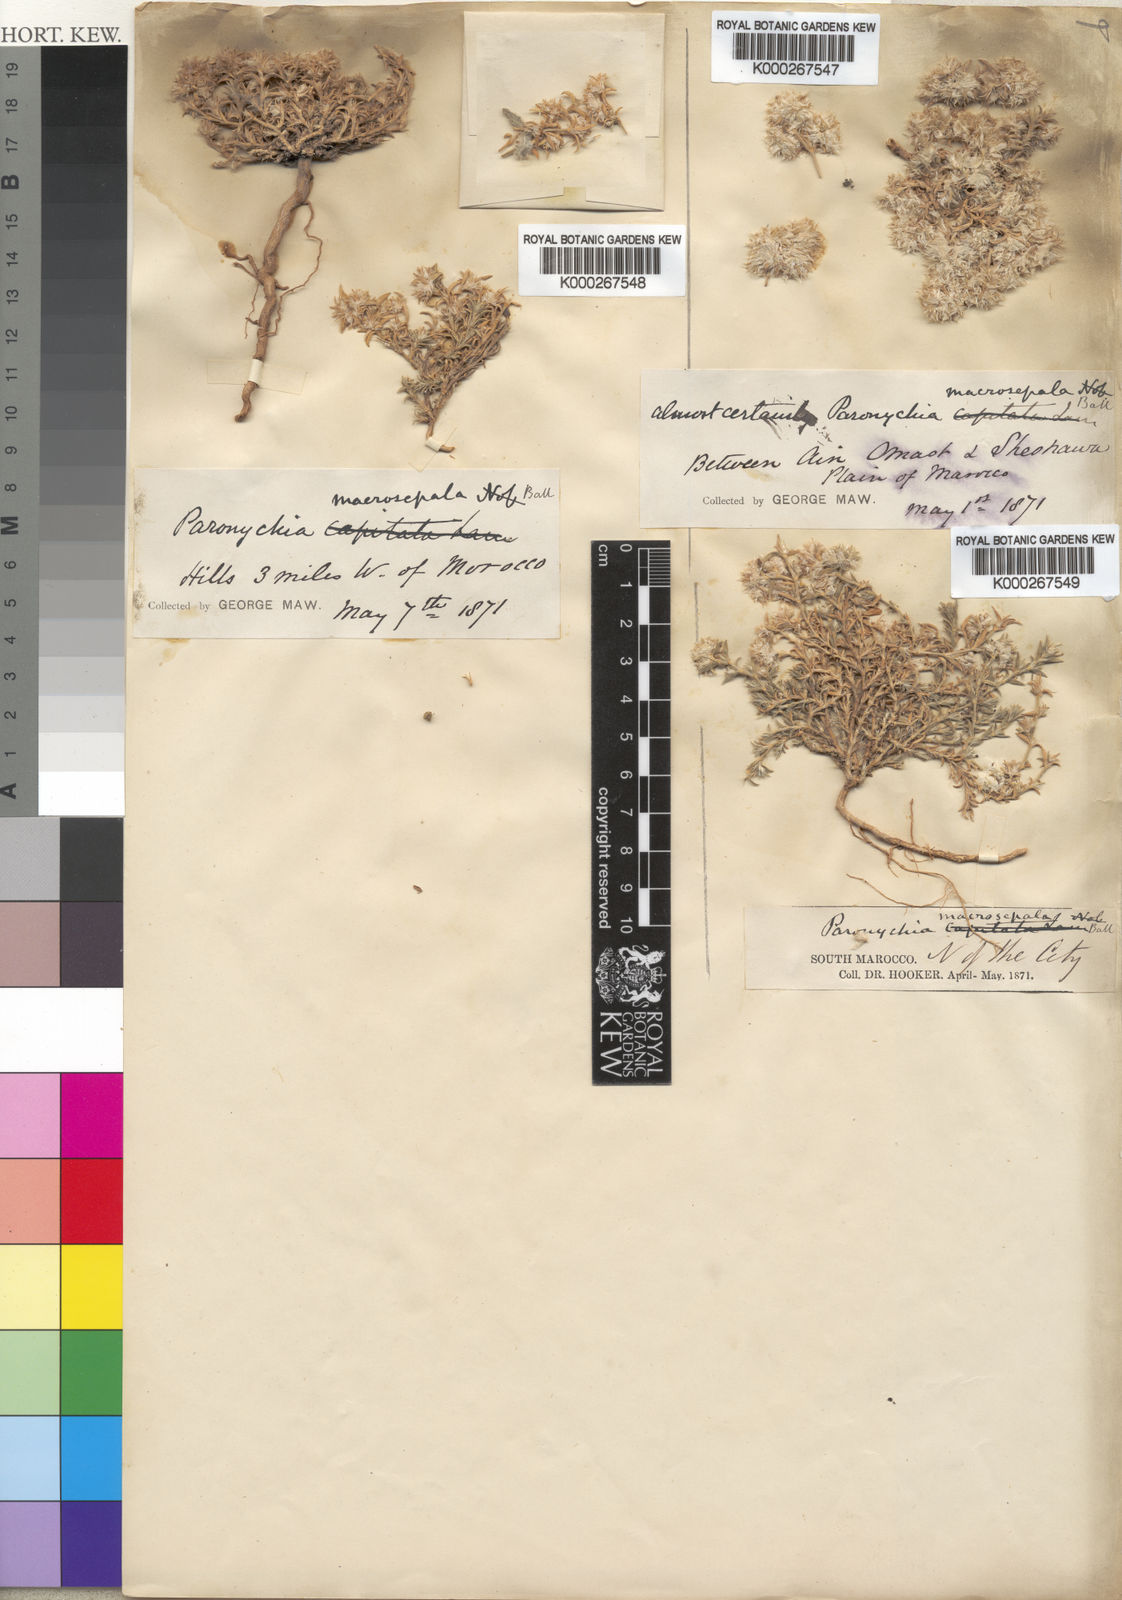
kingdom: Plantae
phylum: Tracheophyta
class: Magnoliopsida
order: Caryophyllales
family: Caryophyllaceae
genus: Paronychia
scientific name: Paronychia macrosepala
